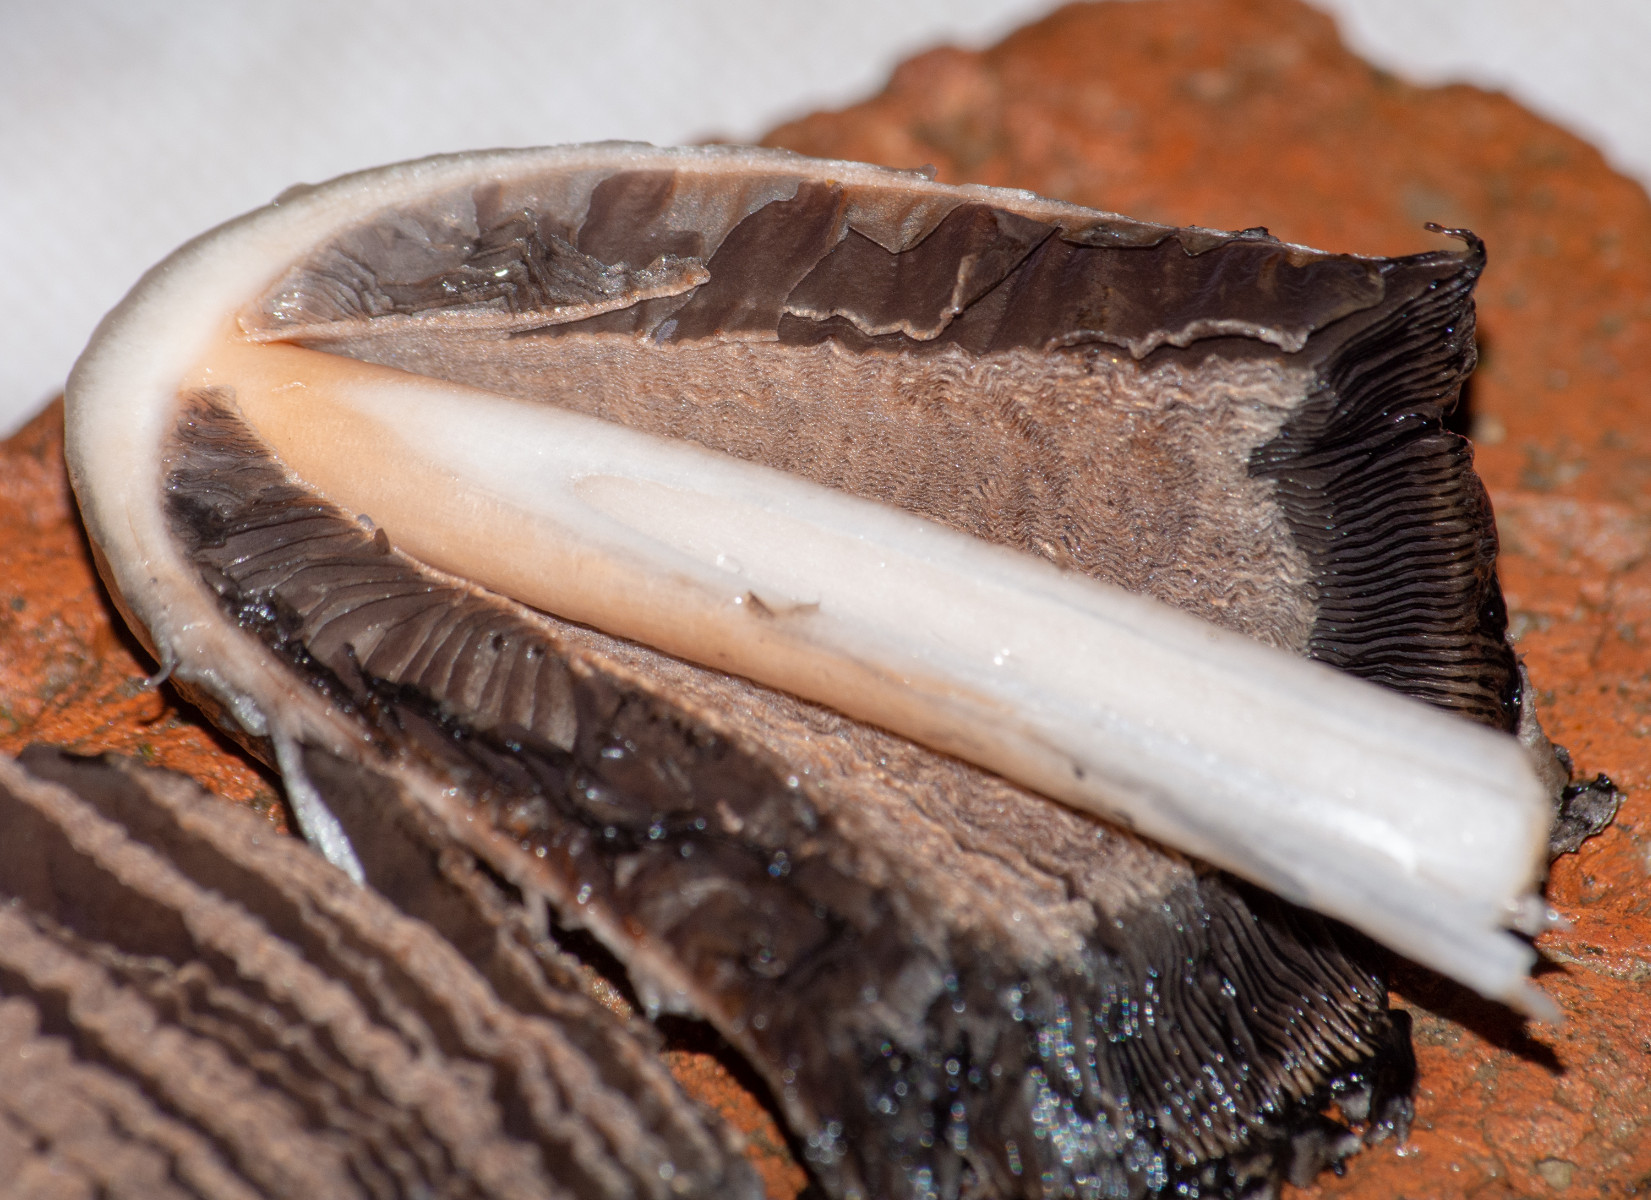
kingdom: Fungi
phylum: Basidiomycota
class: Agaricomycetes
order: Agaricales
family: Agaricaceae
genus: Coprinus
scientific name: Coprinus comatus
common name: stor parykhat
